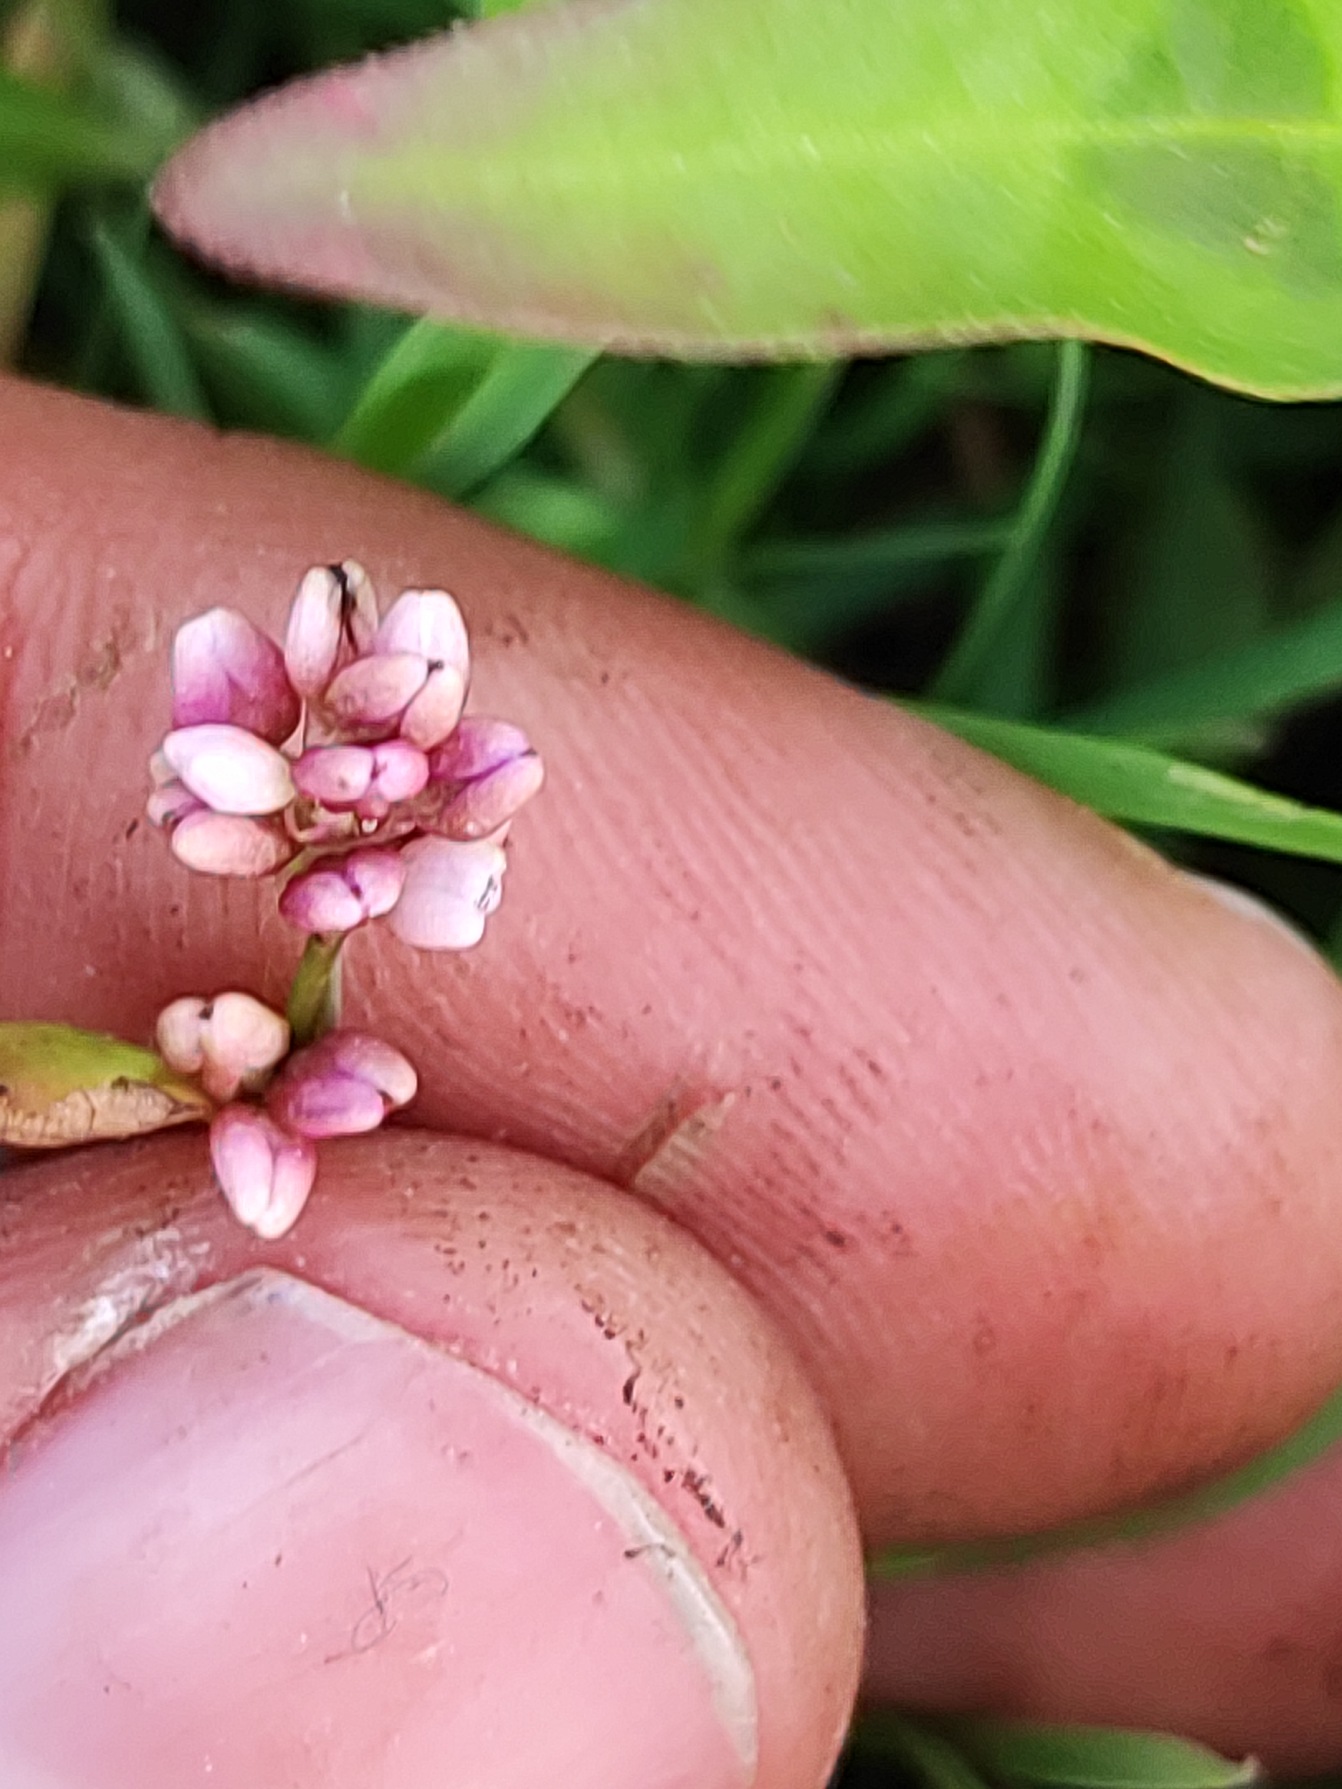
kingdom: Plantae
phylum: Tracheophyta
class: Magnoliopsida
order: Caryophyllales
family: Polygonaceae
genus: Persicaria
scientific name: Persicaria maculosa
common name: Fersken-pileurt
